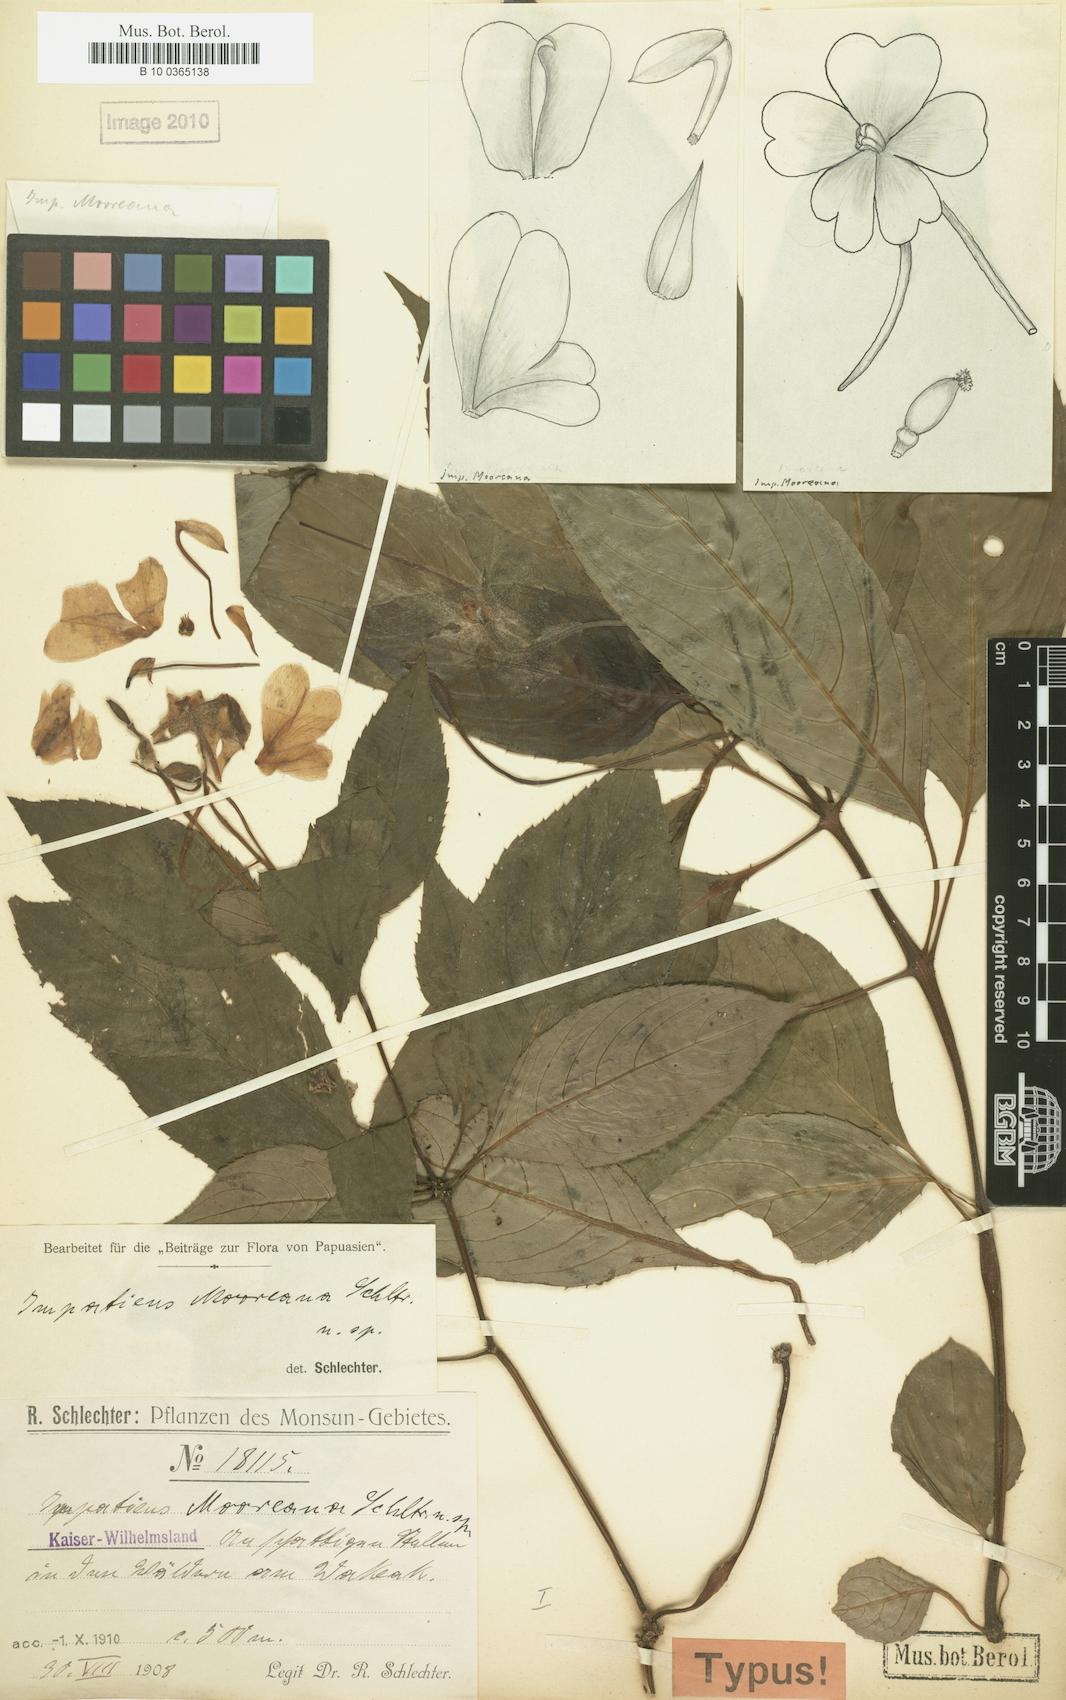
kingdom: Plantae
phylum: Tracheophyta
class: Magnoliopsida
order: Ericales
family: Balsaminaceae
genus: Impatiens
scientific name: Impatiens hawkeri
